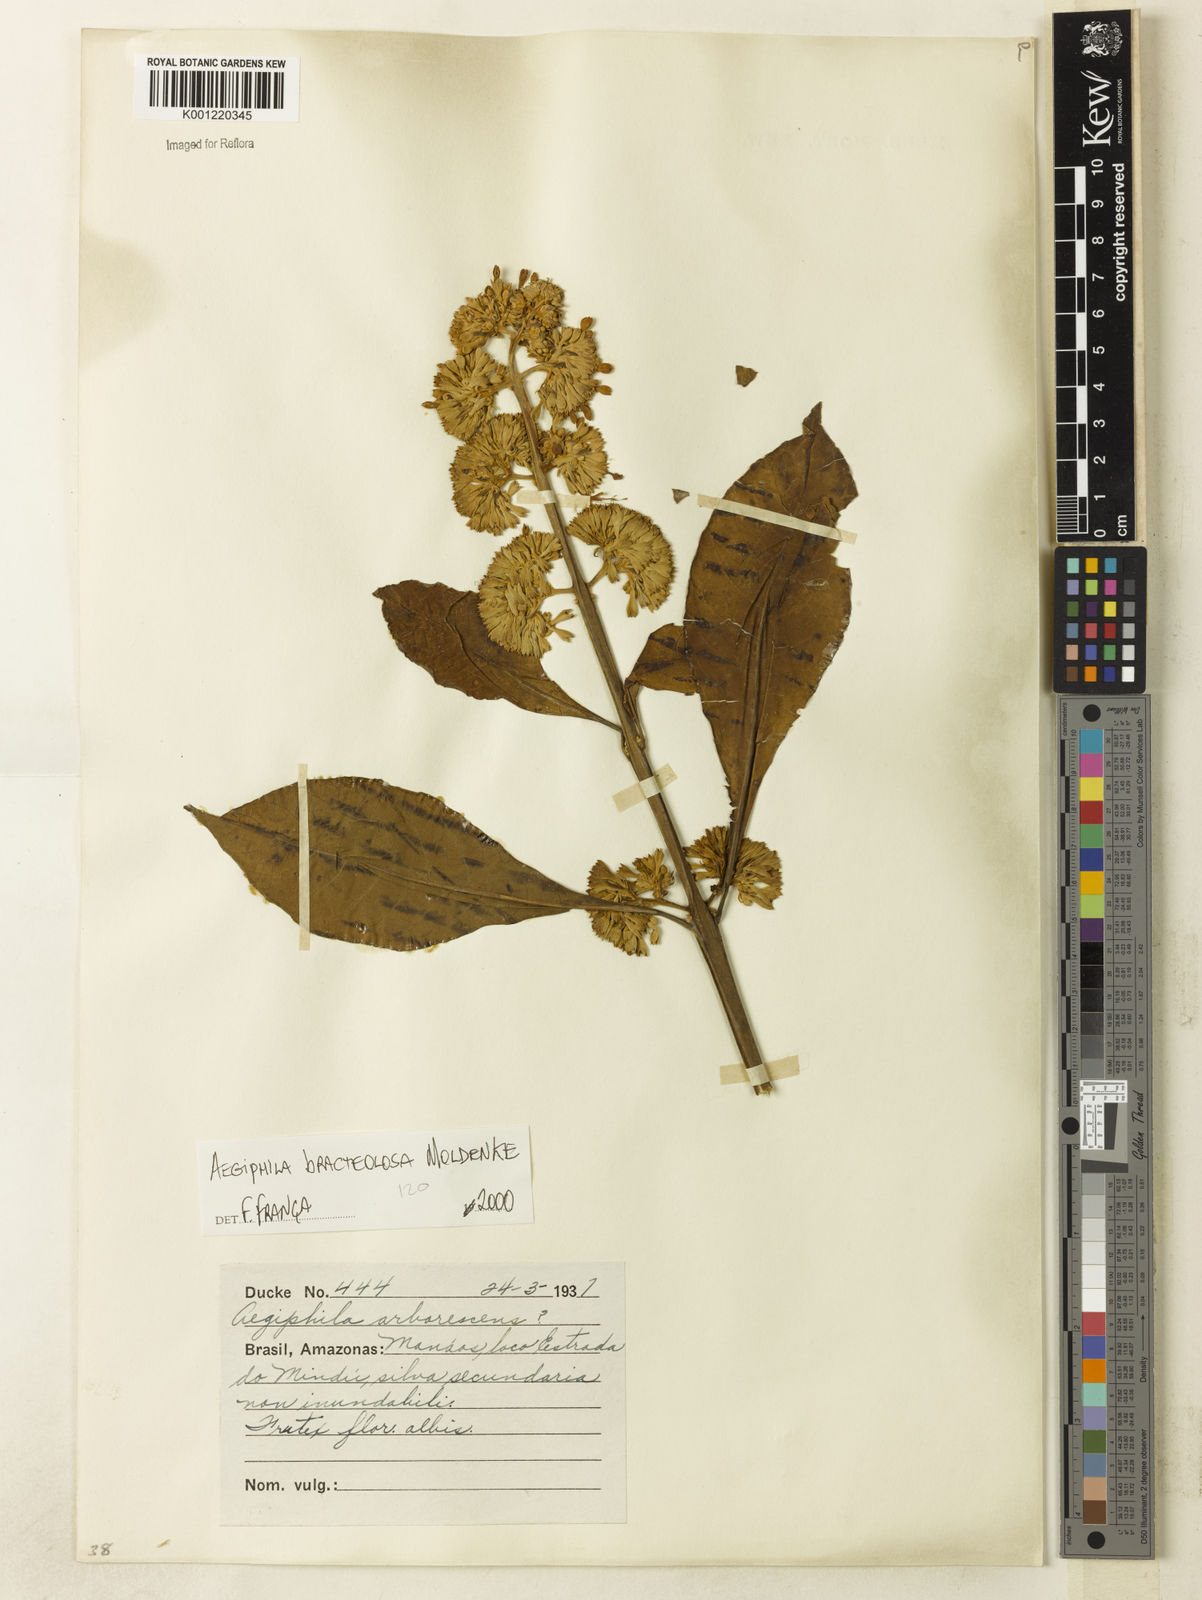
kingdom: Plantae
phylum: Tracheophyta
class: Magnoliopsida
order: Lamiales
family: Lamiaceae
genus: Aegiphila
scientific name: Aegiphila bracteolosa
